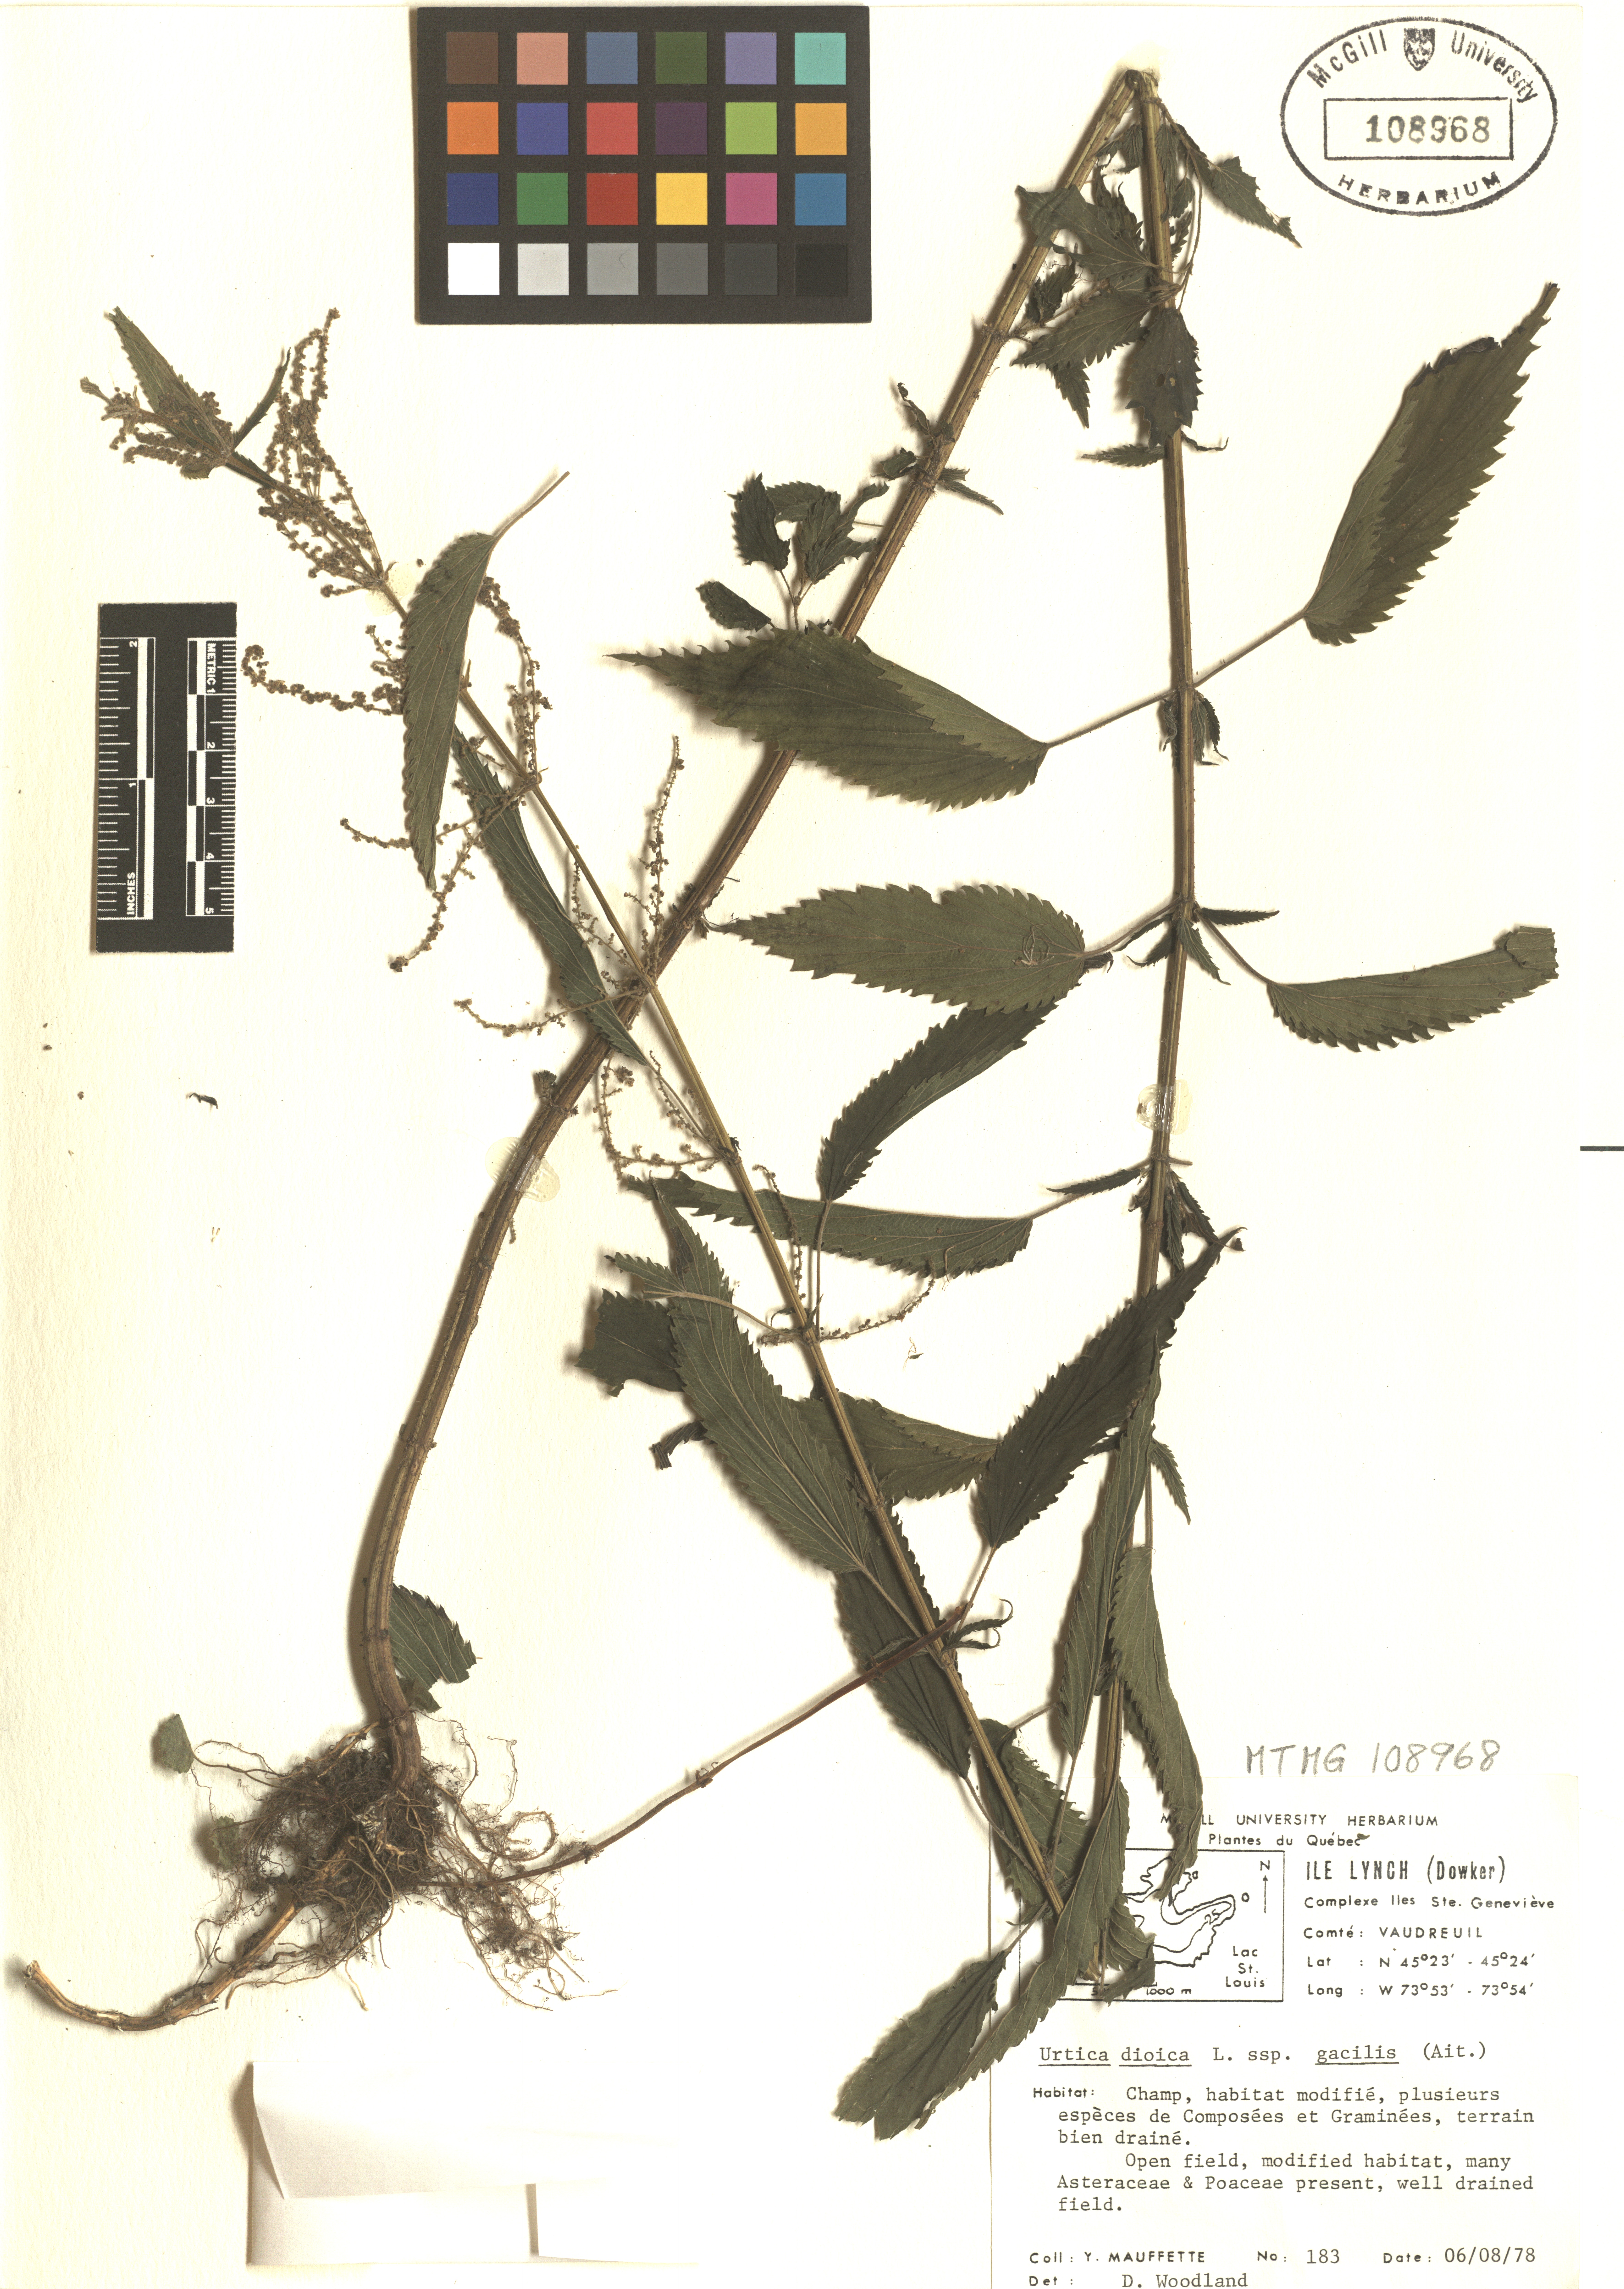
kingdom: Plantae
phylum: Tracheophyta
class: Magnoliopsida
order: Rosales
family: Urticaceae
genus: Urtica
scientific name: Urtica gracilis
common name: Slender stinging nettle
